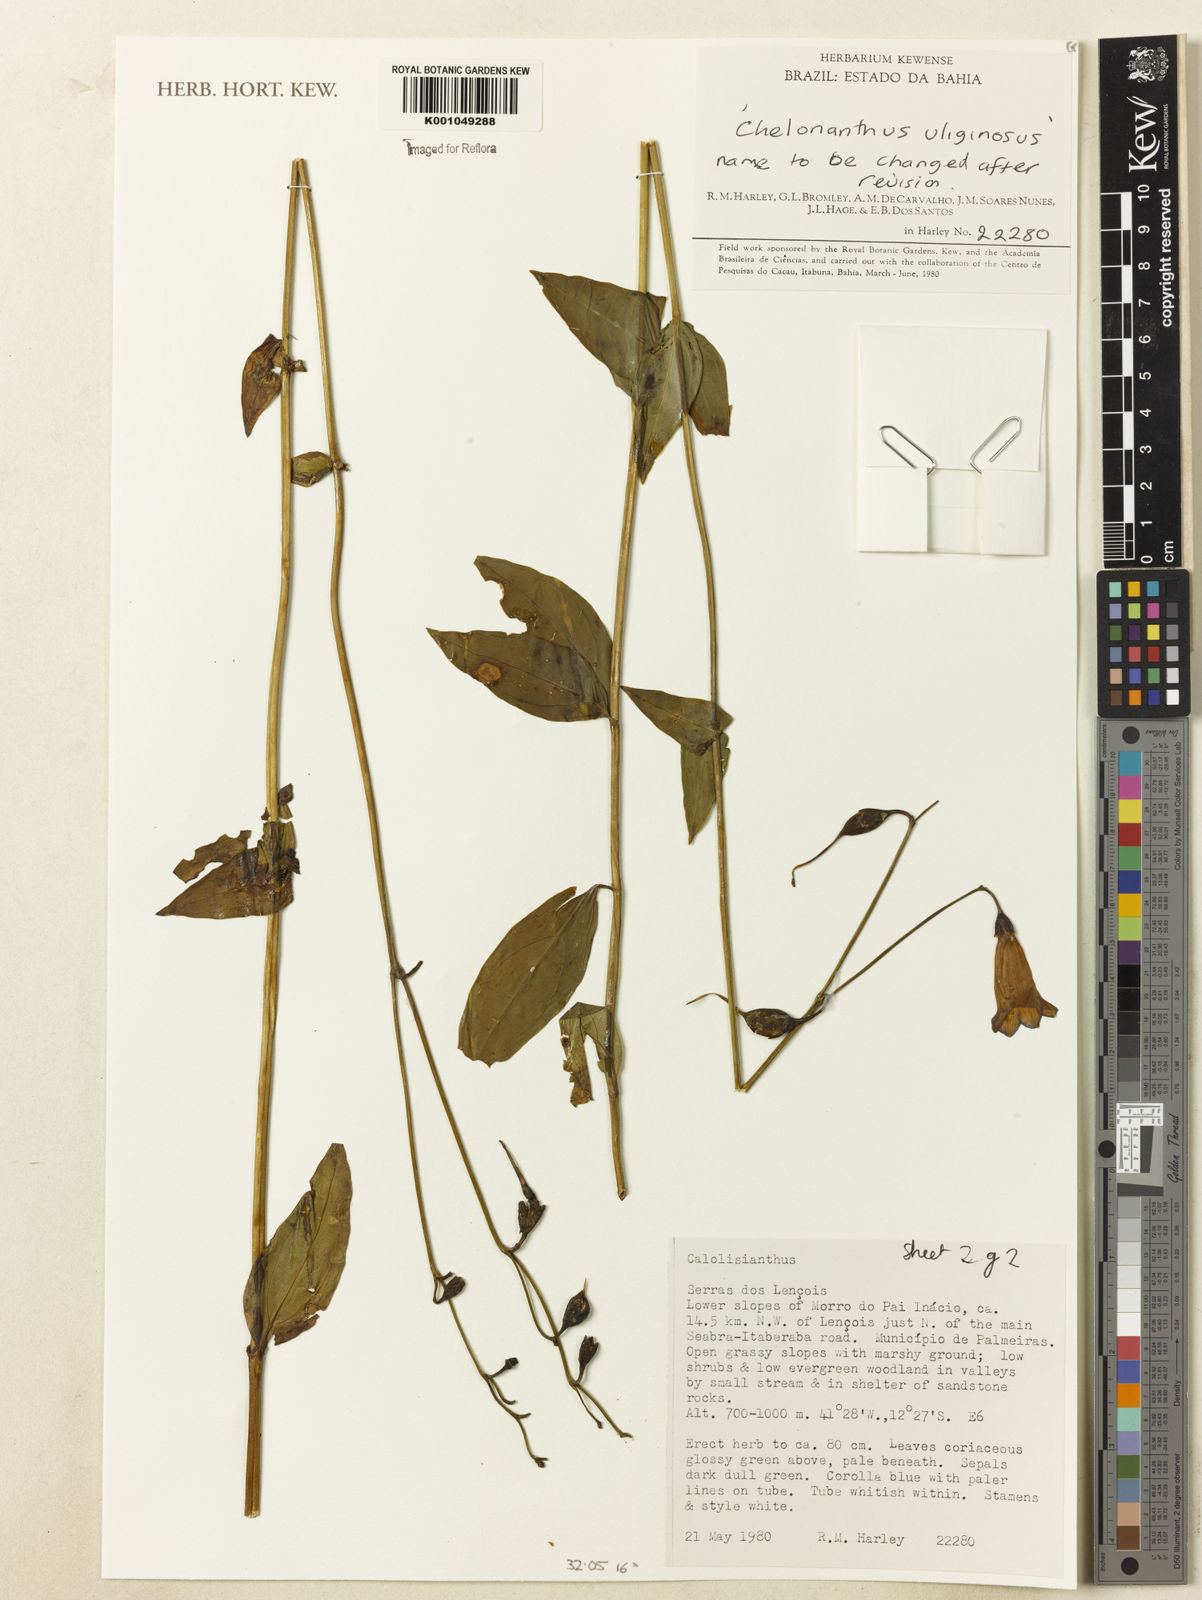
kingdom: Plantae
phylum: Tracheophyta
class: Magnoliopsida
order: Gentianales
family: Gentianaceae
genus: Calolisianthus
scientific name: Calolisianthus
